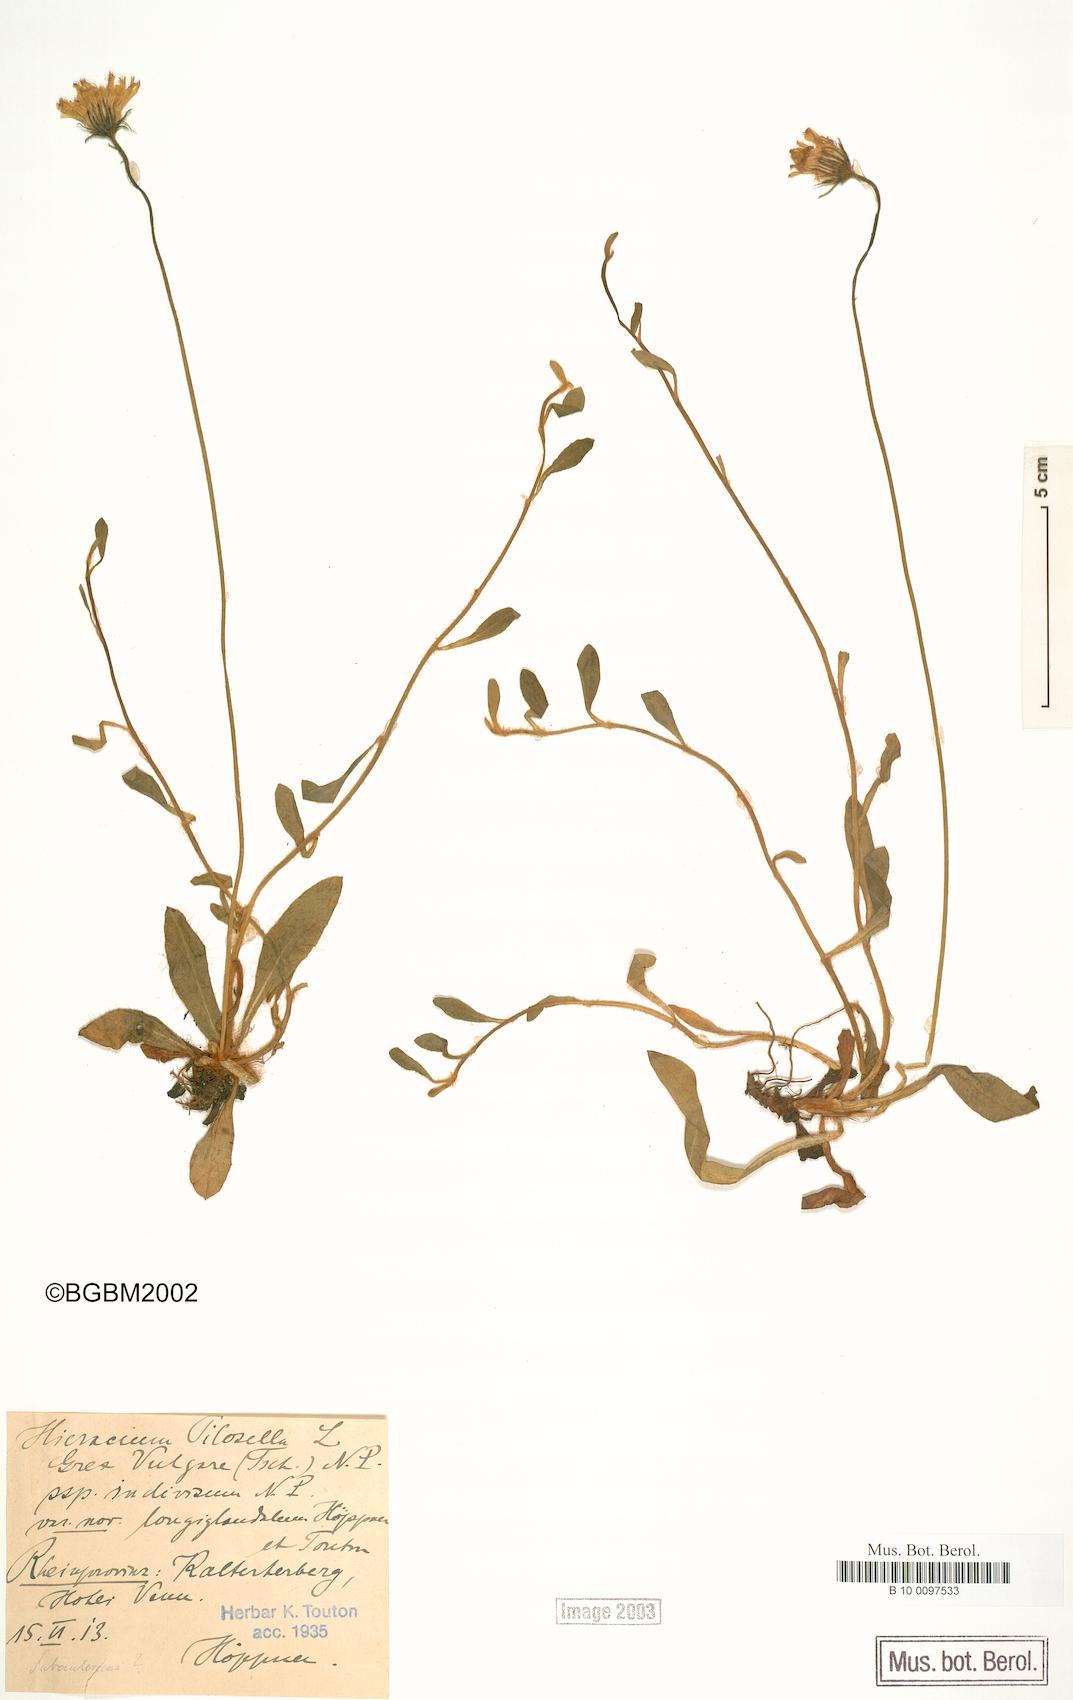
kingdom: Plantae
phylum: Tracheophyta
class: Magnoliopsida
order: Asterales
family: Asteraceae
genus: Pilosella
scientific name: Pilosella officinarum
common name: Mouse-ear hawkweed
